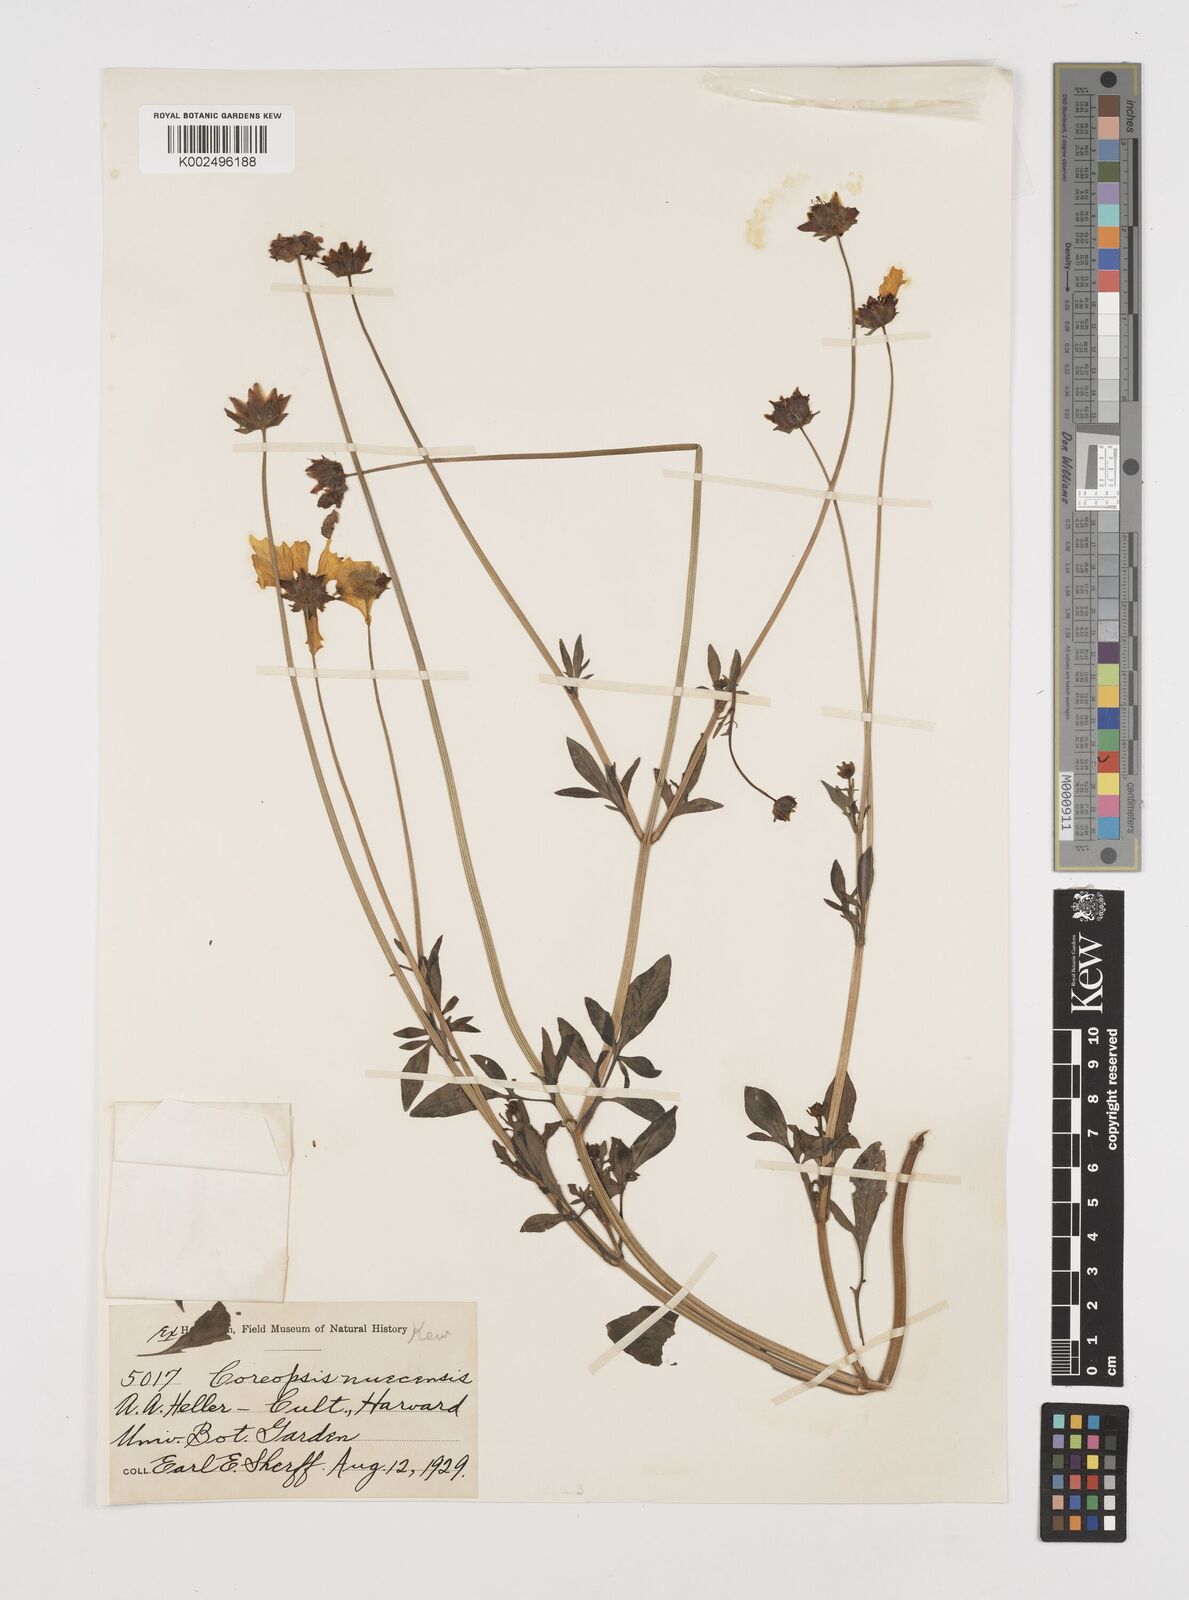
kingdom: Plantae
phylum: Tracheophyta
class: Magnoliopsida
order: Asterales
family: Asteraceae
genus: Coreopsis
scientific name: Coreopsis nuecensis
